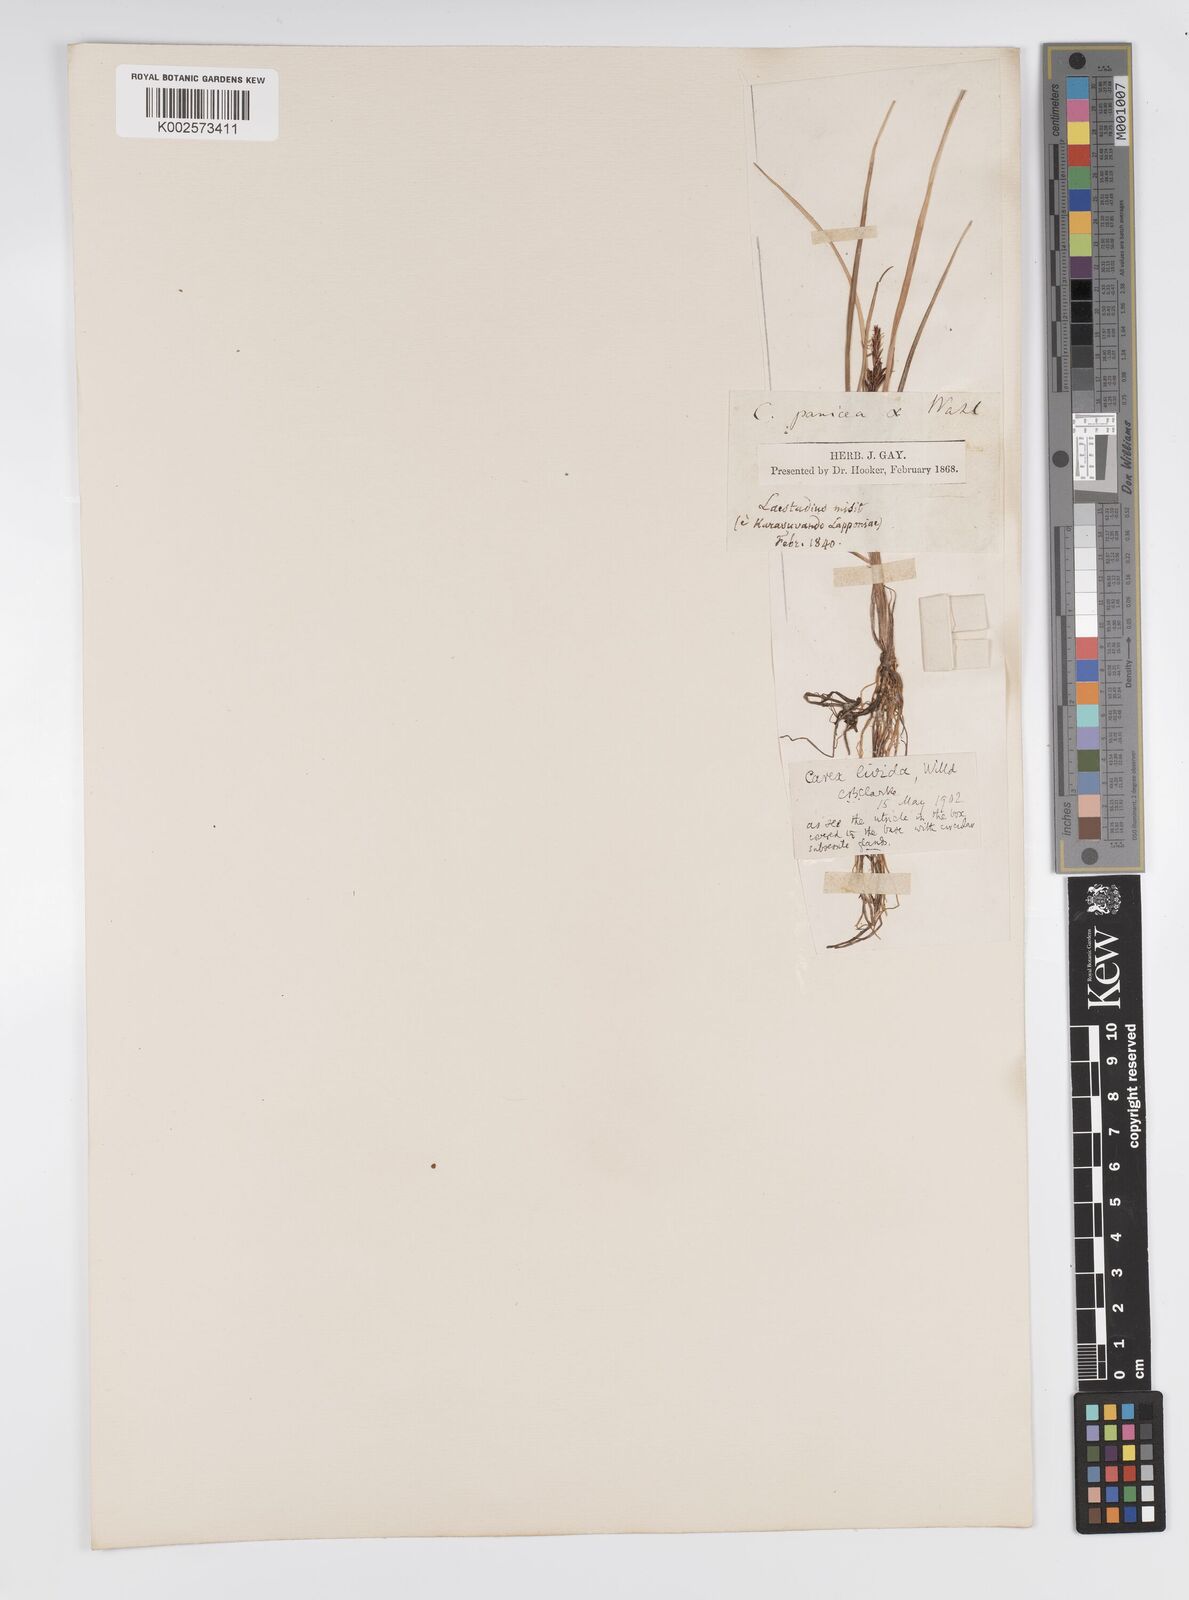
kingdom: Plantae
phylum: Tracheophyta
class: Liliopsida
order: Poales
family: Cyperaceae
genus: Carex
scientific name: Carex livida
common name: Livid sedge
